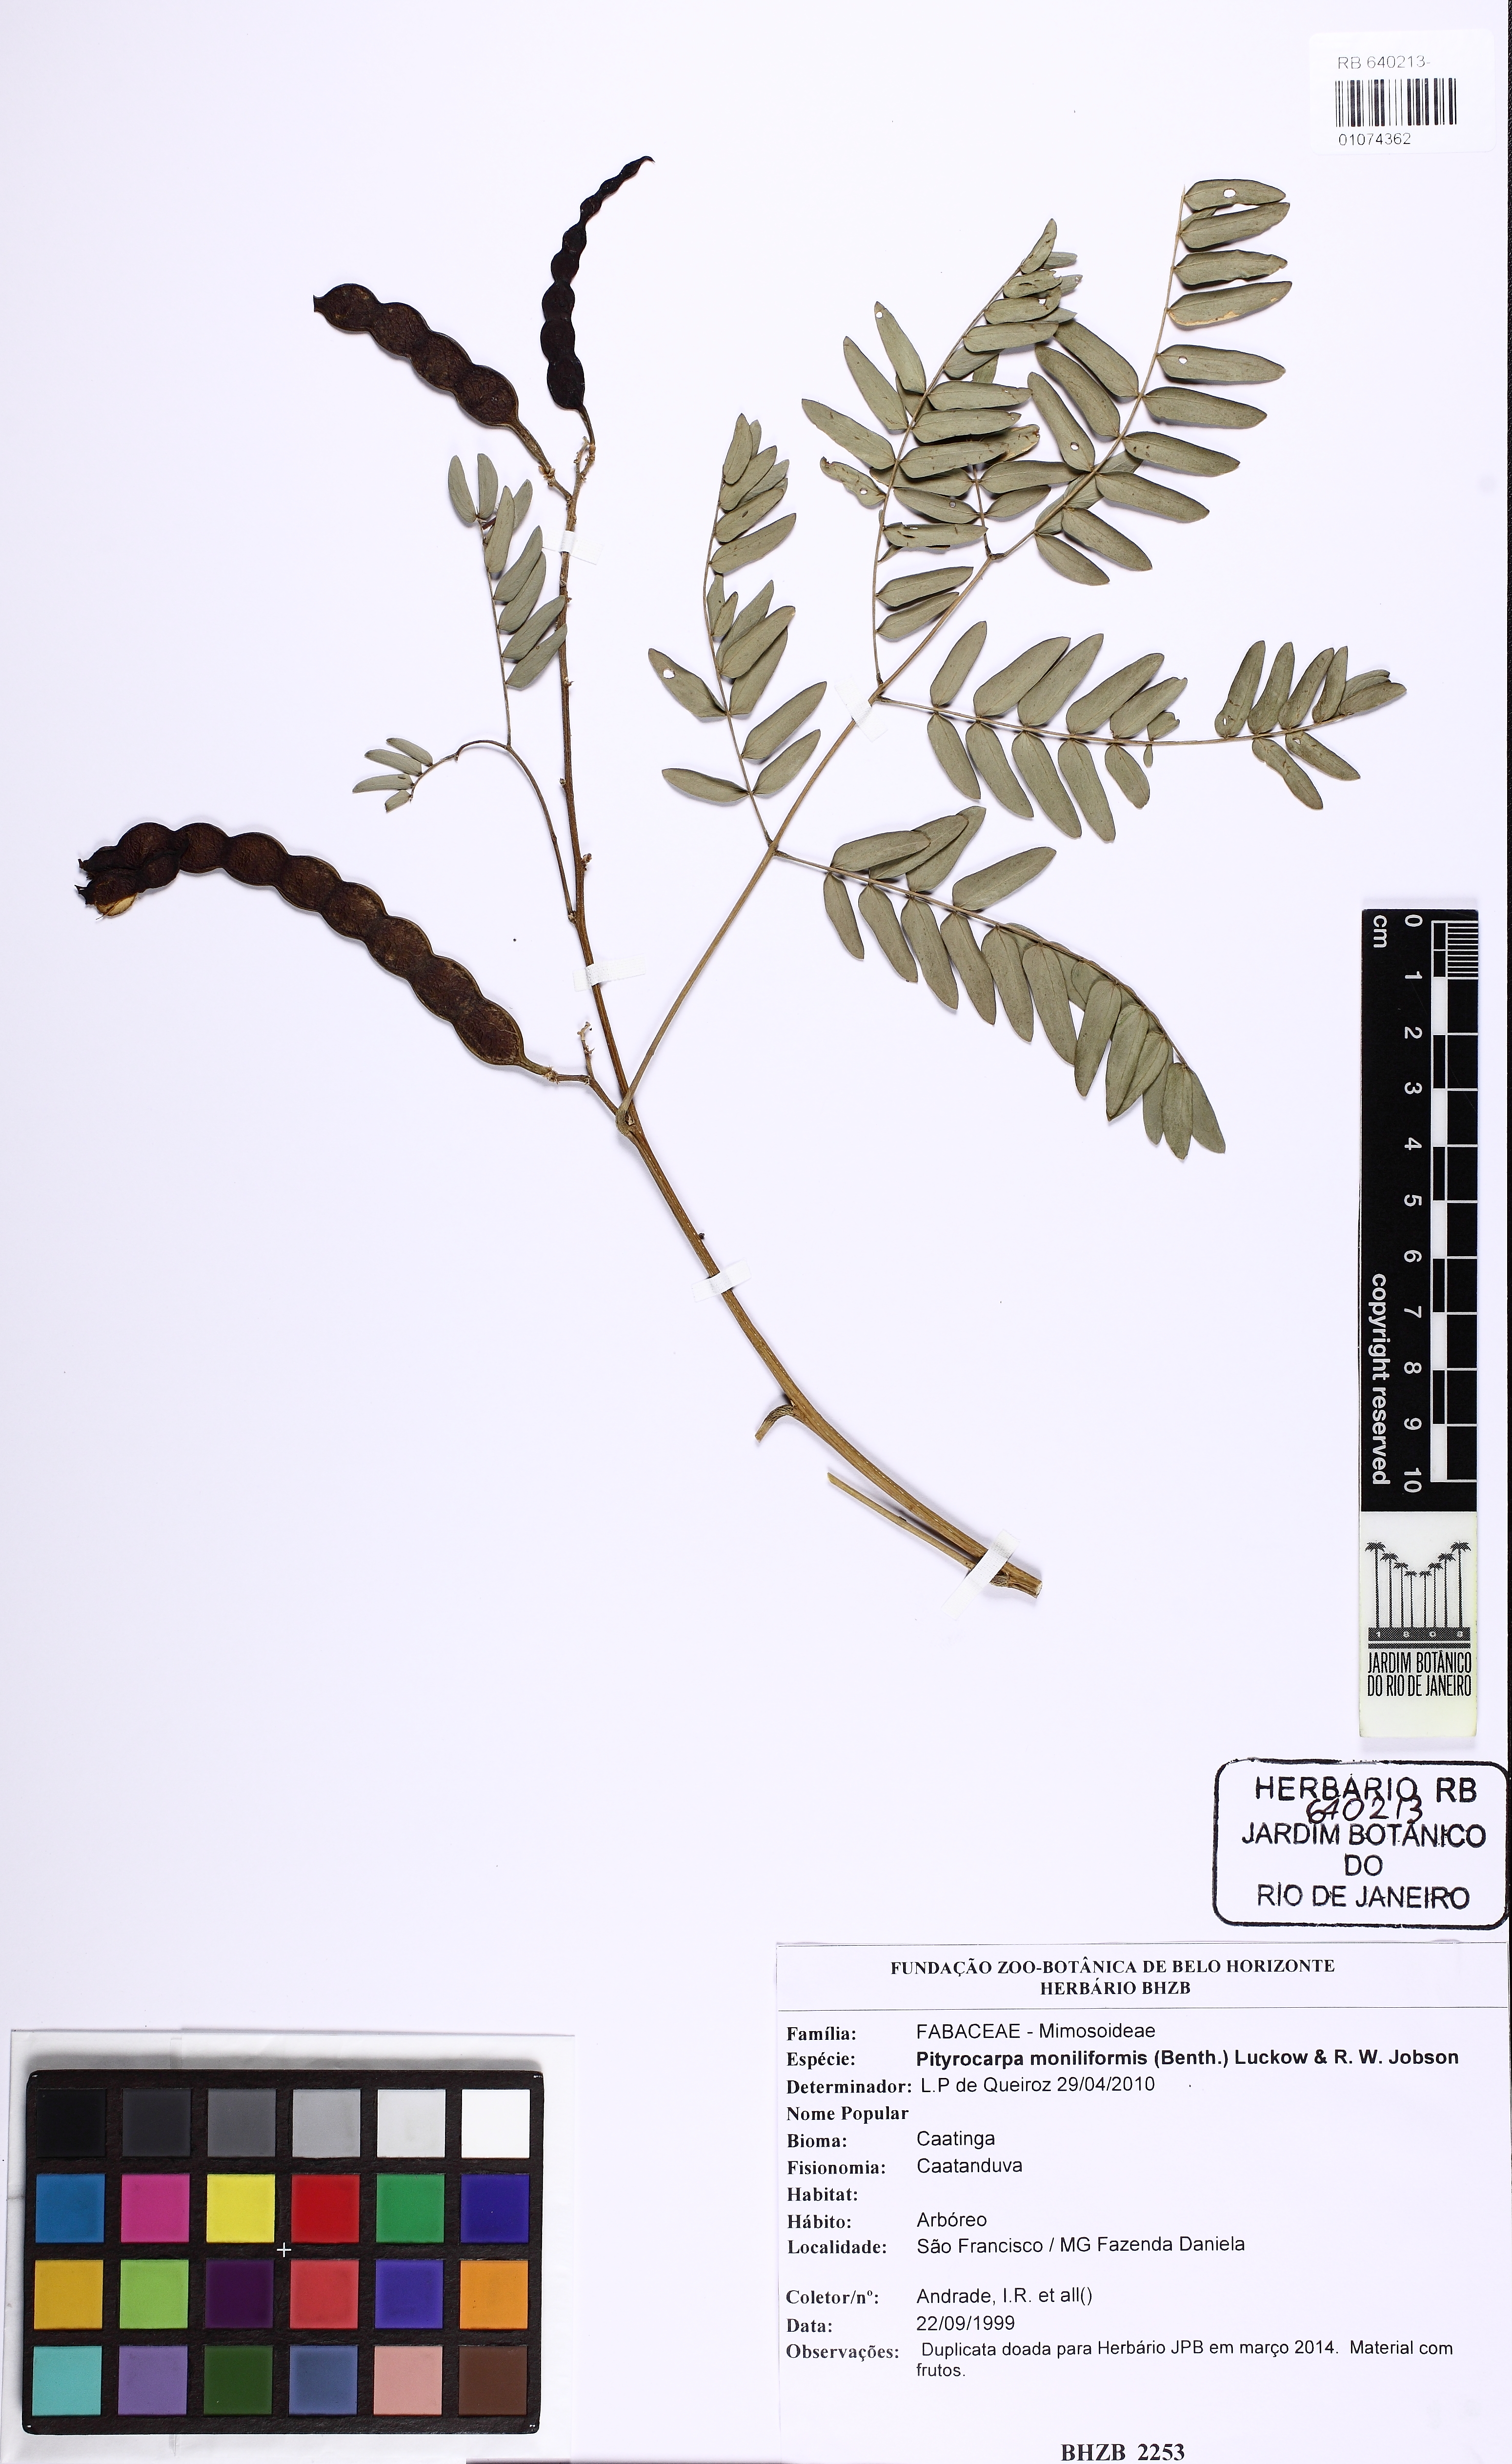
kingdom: Plantae
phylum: Tracheophyta
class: Magnoliopsida
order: Fabales
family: Fabaceae
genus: Pityrocarpa
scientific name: Pityrocarpa moniliformis
